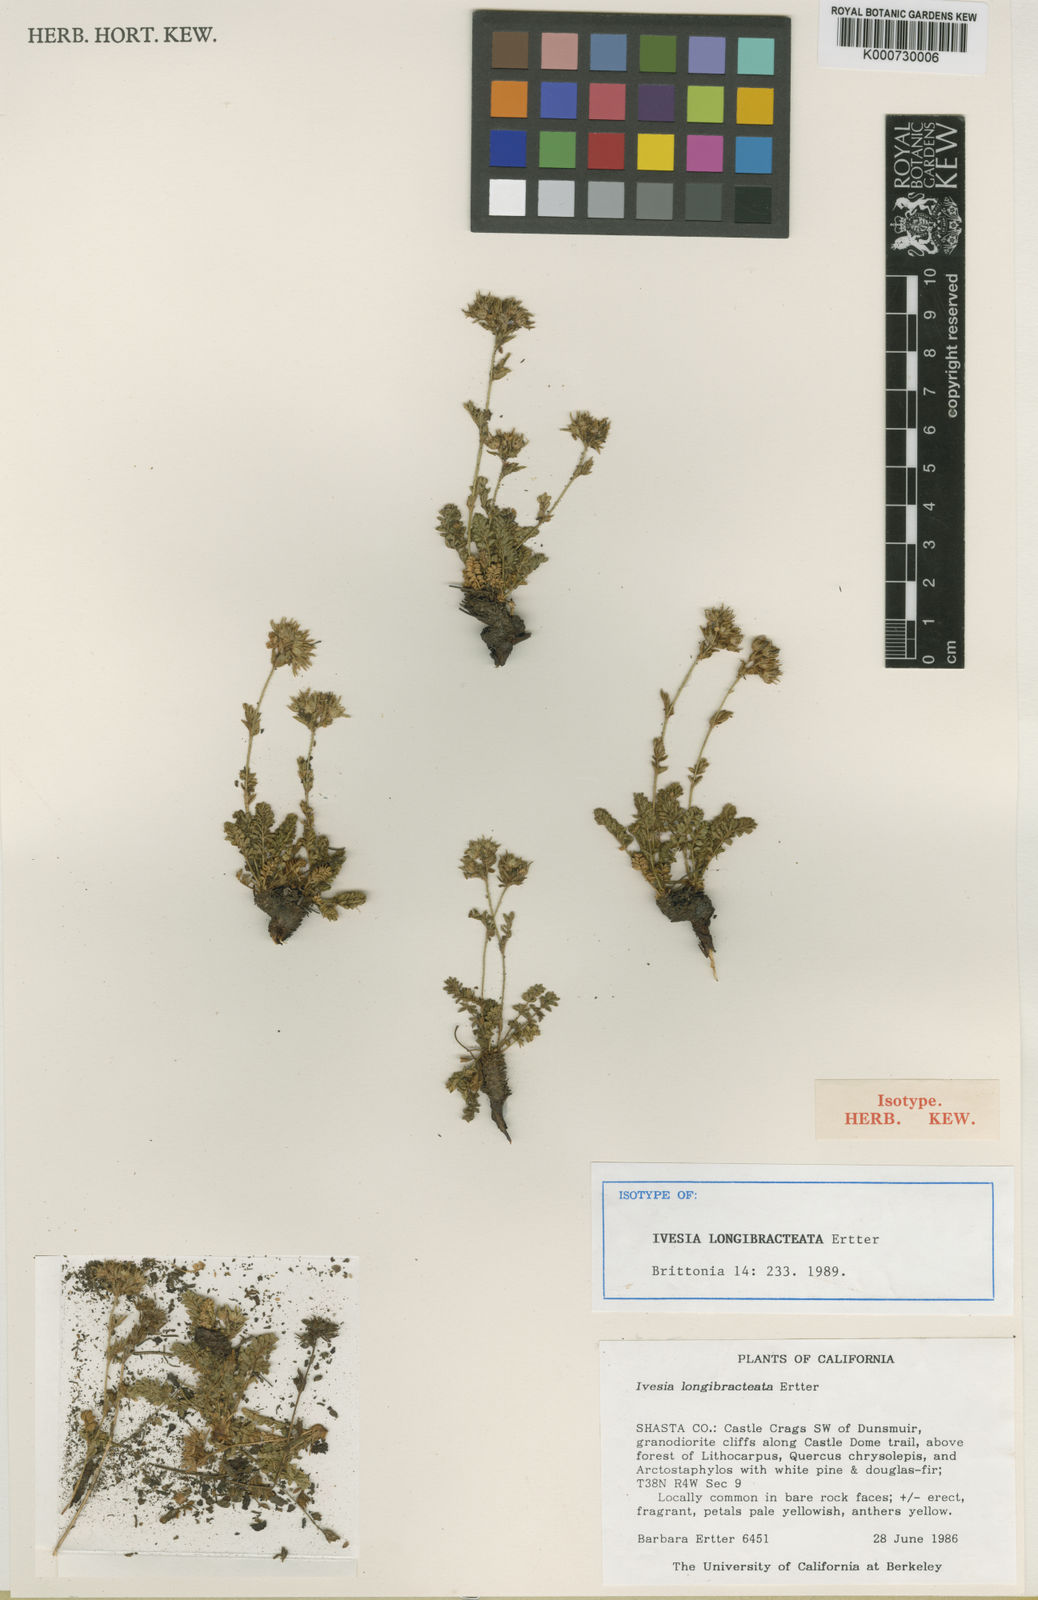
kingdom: Plantae
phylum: Tracheophyta
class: Magnoliopsida
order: Rosales
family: Rosaceae
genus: Potentilla
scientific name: Potentilla longibracteata
